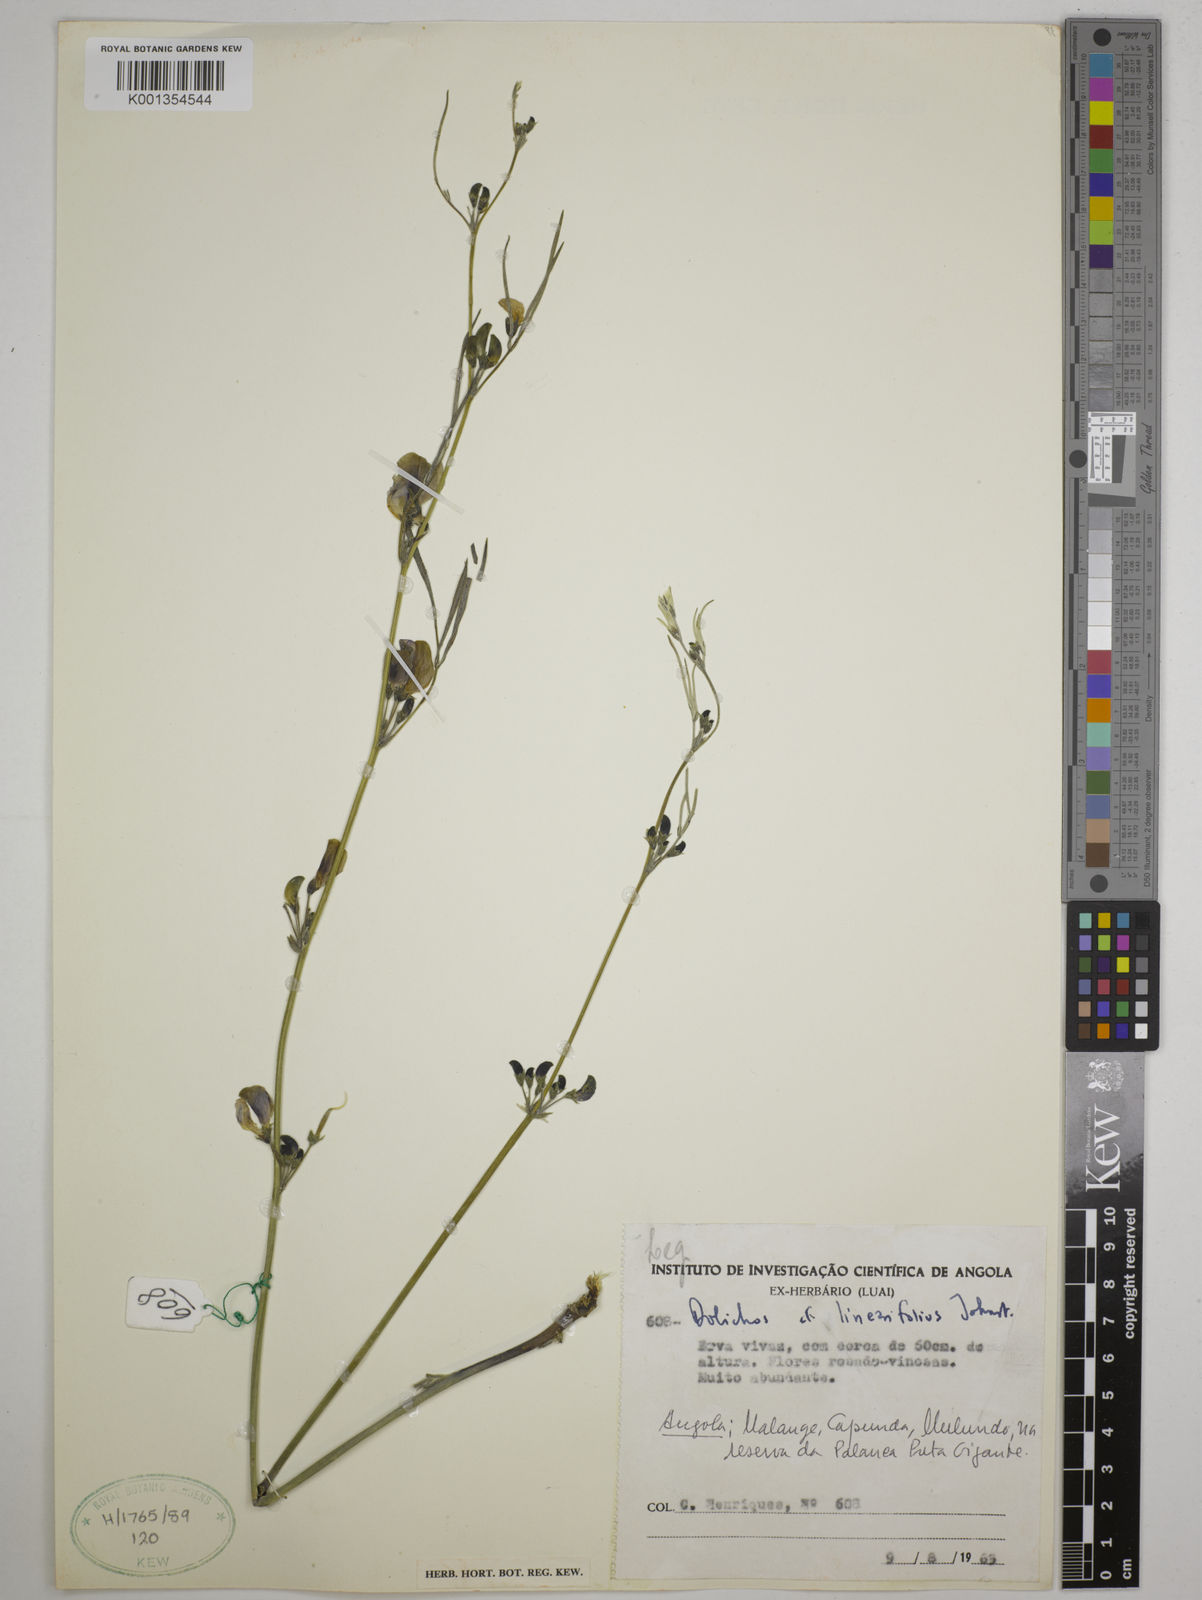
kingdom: Plantae
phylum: Tracheophyta
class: Magnoliopsida
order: Fabales
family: Fabaceae
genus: Dolichos
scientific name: Dolichos linearifolius
